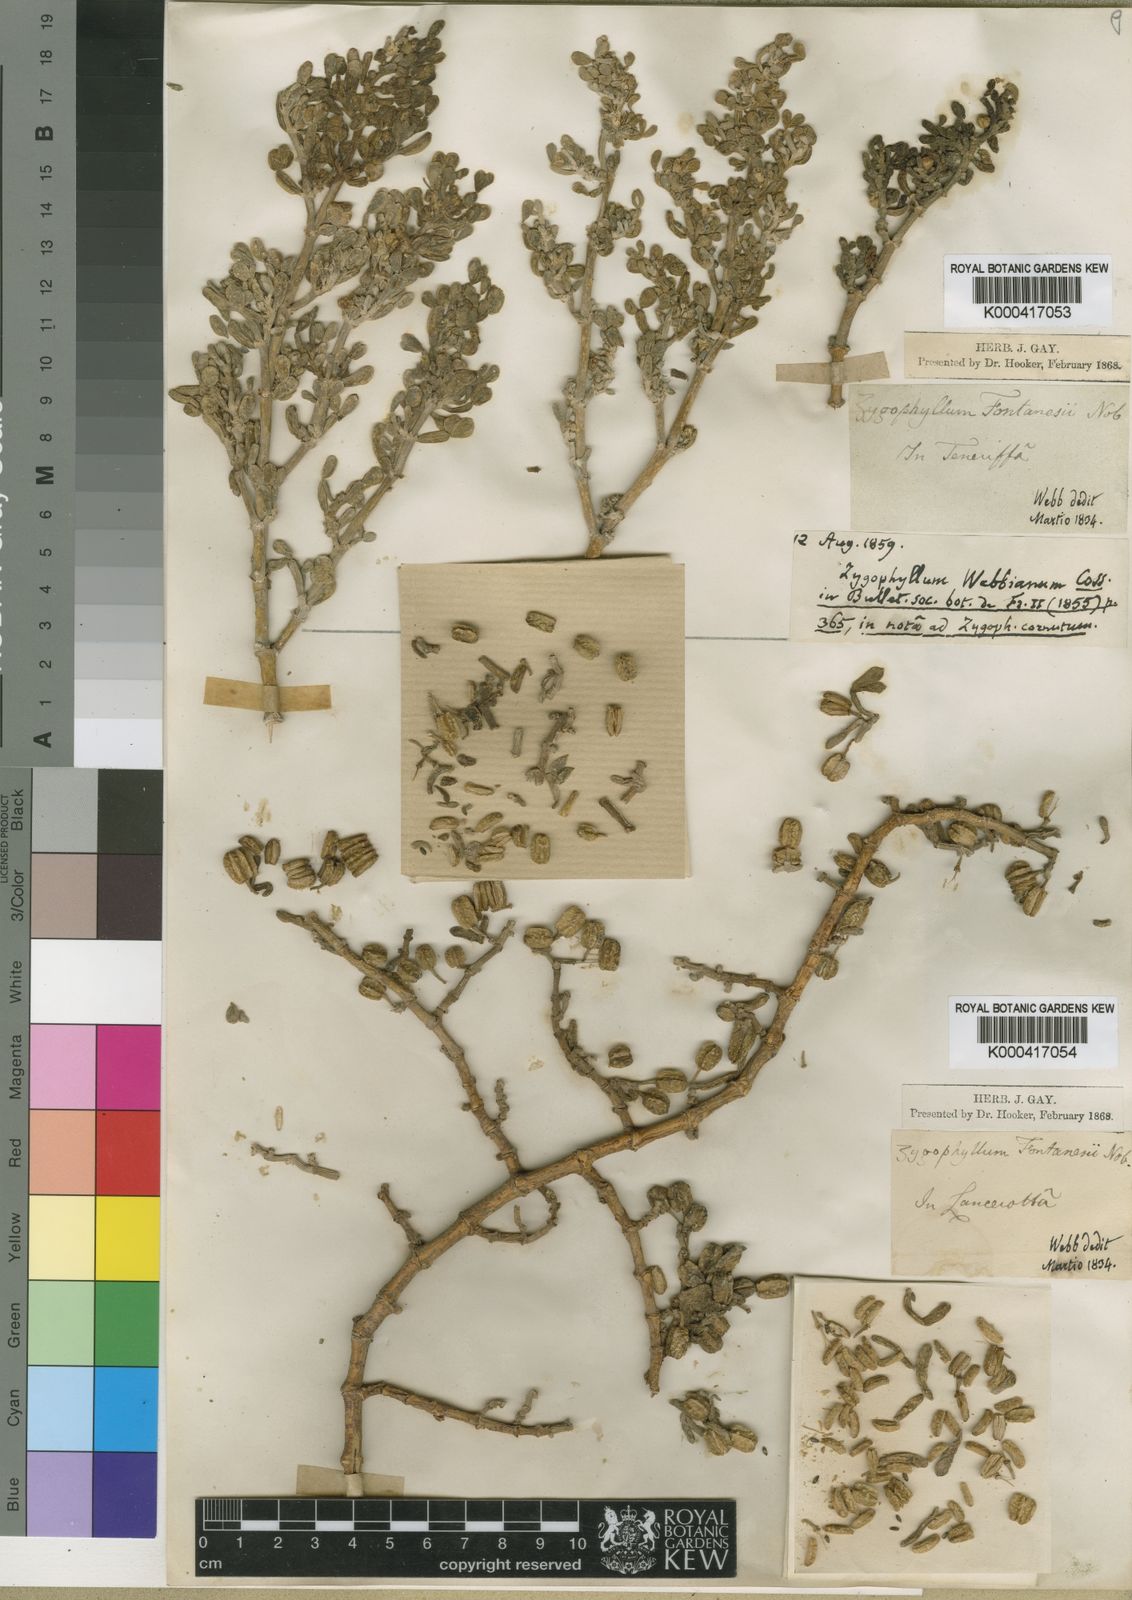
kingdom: Plantae
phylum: Tracheophyta
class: Magnoliopsida
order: Zygophyllales
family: Zygophyllaceae
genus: Tetraena
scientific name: Tetraena fontanesii
